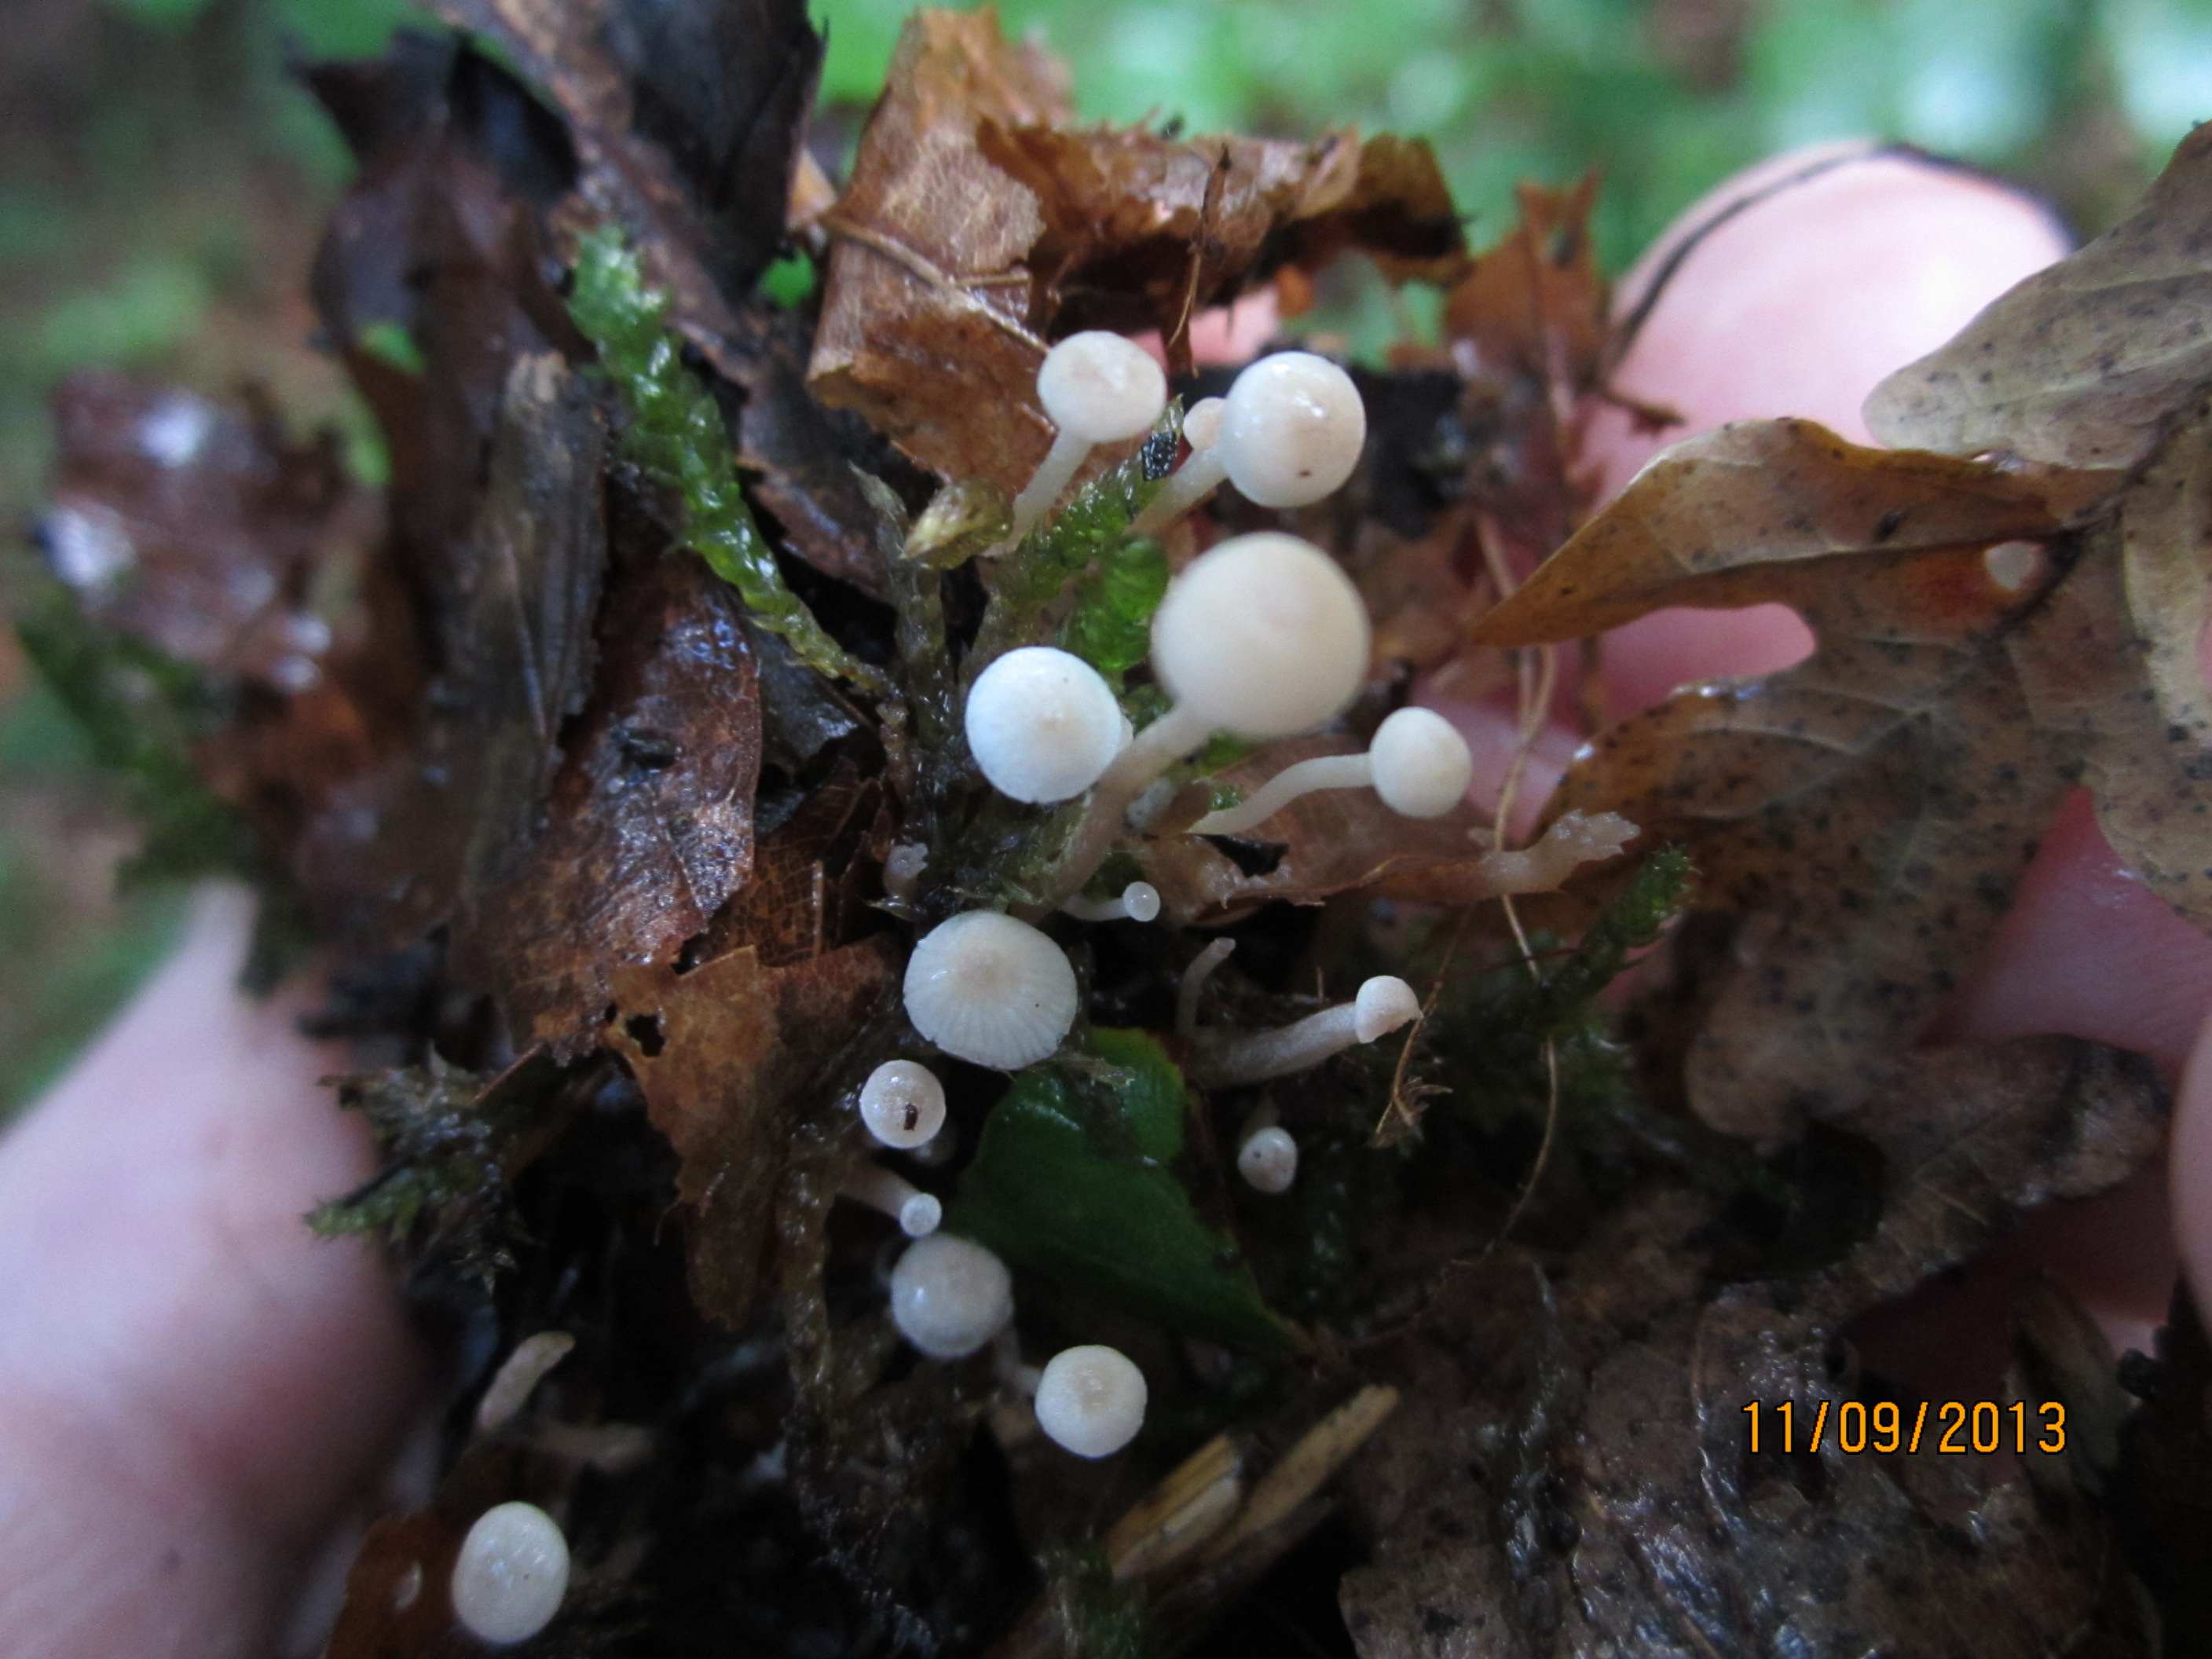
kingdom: Fungi
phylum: Basidiomycota
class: Agaricomycetes
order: Agaricales
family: Tricholomataceae
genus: Collybia
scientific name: Collybia cookei
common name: gulknoldet lighat
